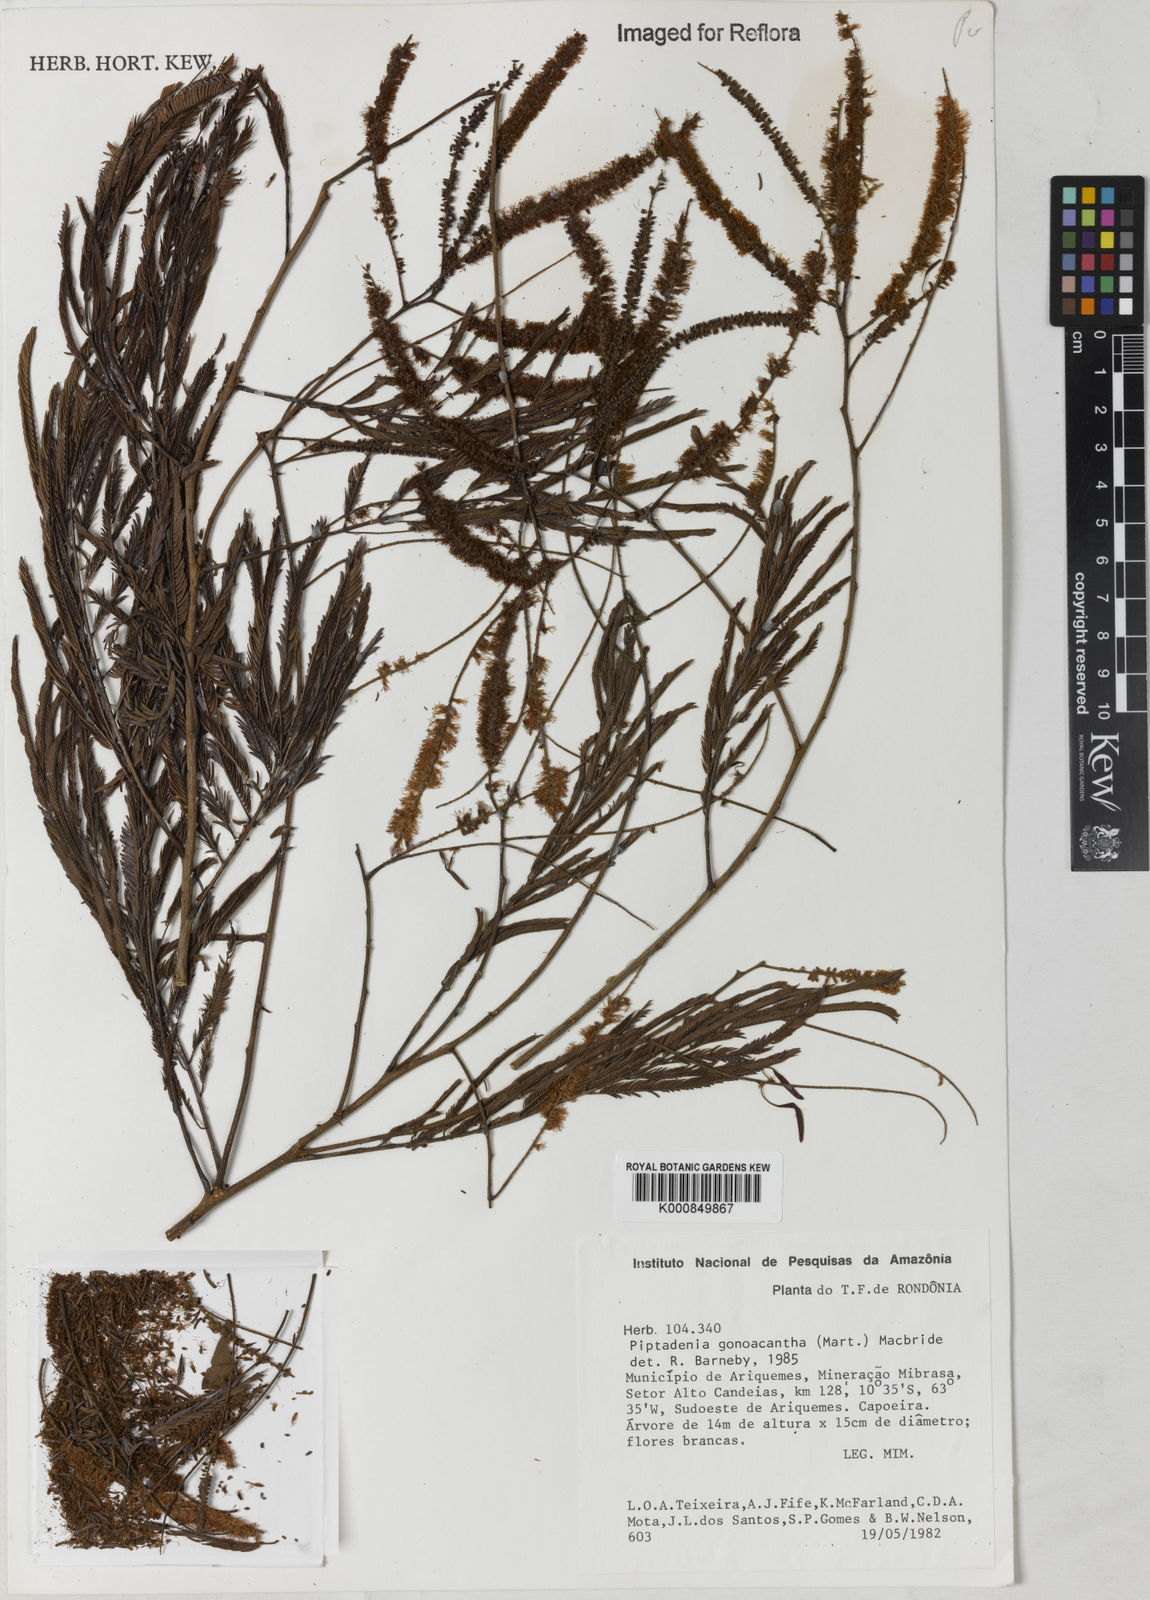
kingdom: Plantae
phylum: Tracheophyta
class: Magnoliopsida
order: Fabales
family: Fabaceae
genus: Piptadenia
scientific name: Piptadenia gonoacantha
